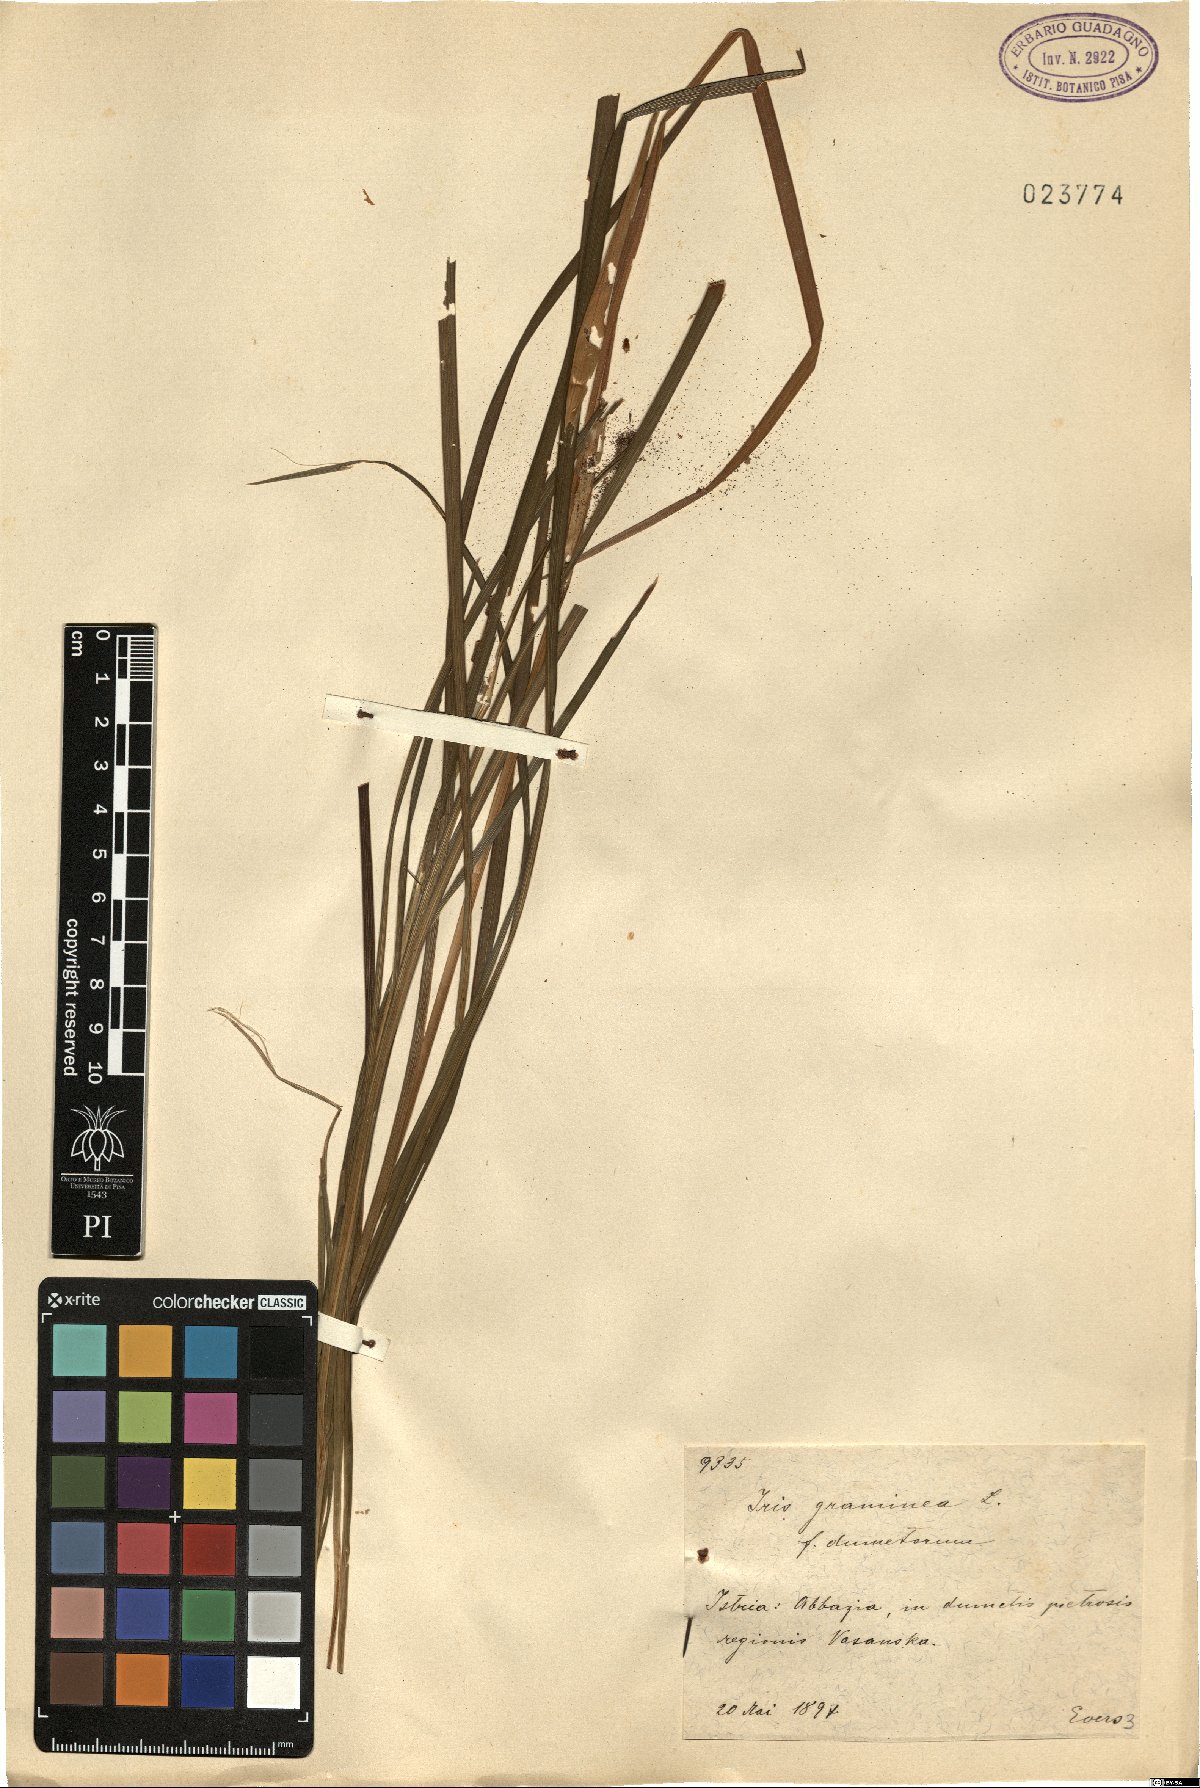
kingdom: Plantae
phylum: Tracheophyta
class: Liliopsida
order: Asparagales
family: Iridaceae
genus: Iris
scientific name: Iris graminea
